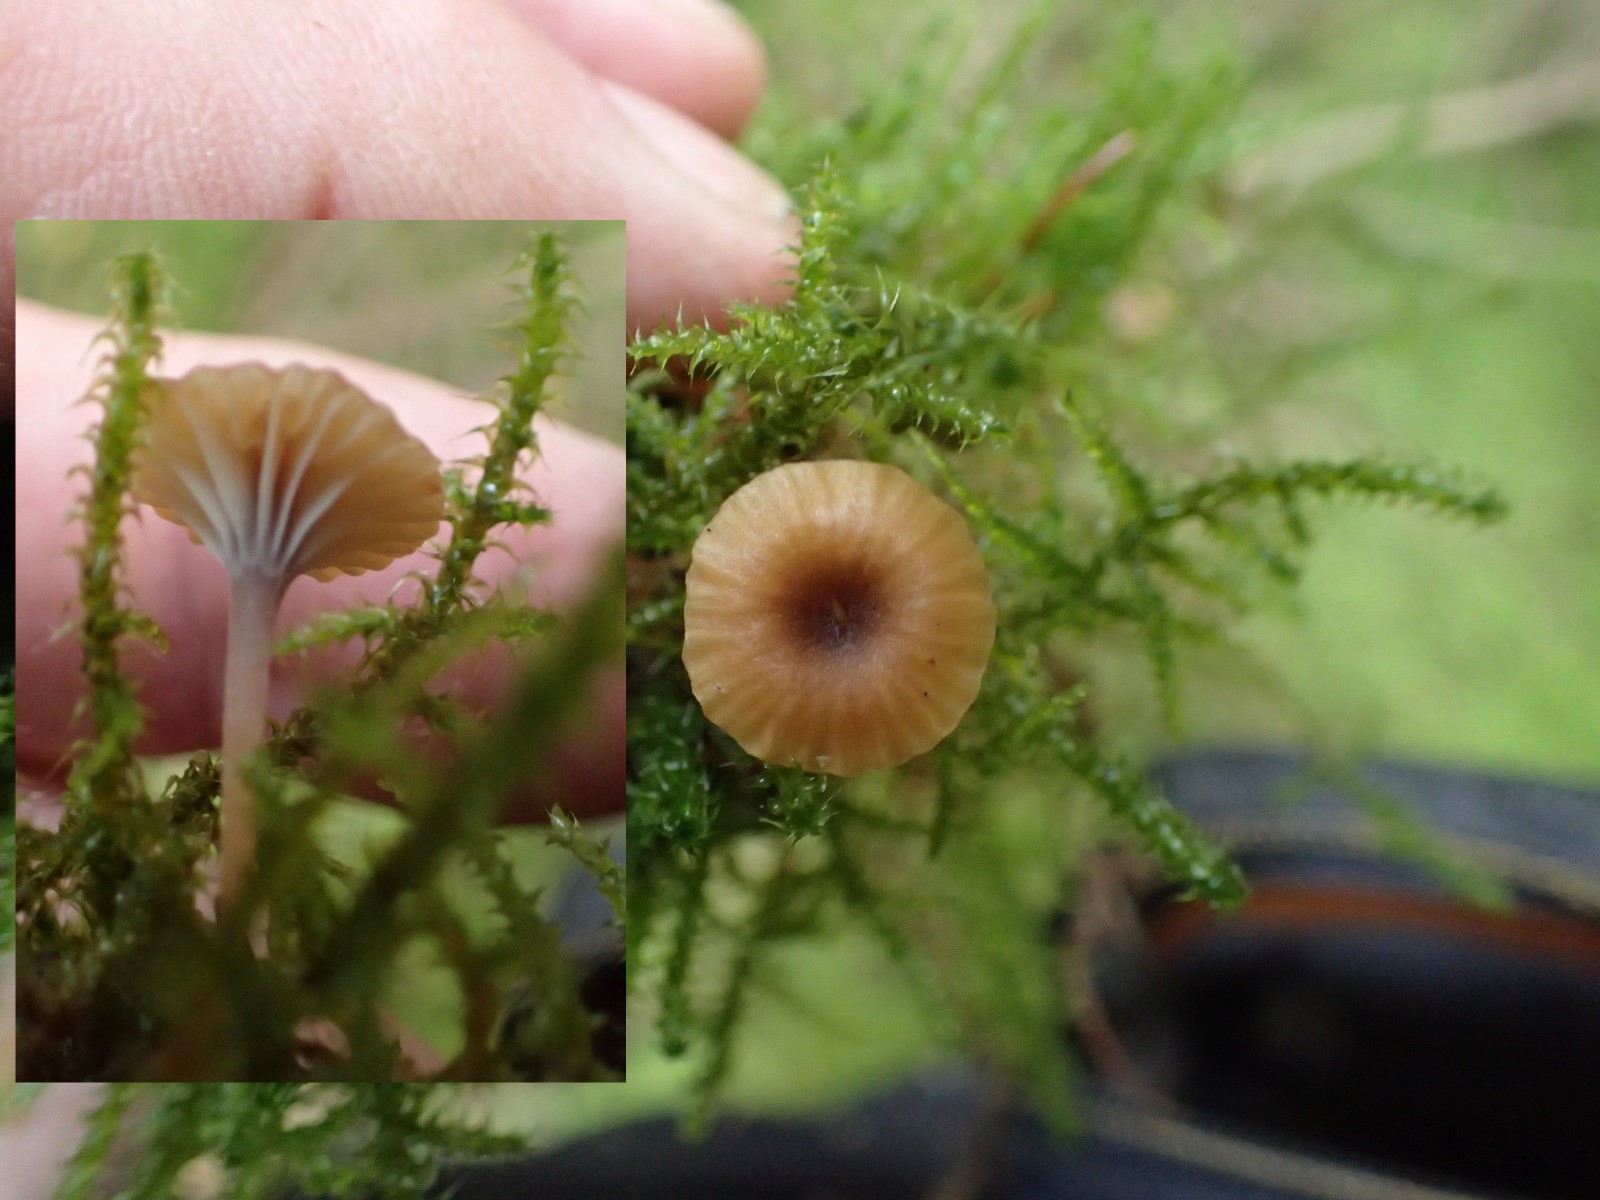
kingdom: Fungi
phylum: Basidiomycota
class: Agaricomycetes
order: Hymenochaetales
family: Rickenellaceae
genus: Rickenella
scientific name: Rickenella swartzii
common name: finstokket mosnavlehat
